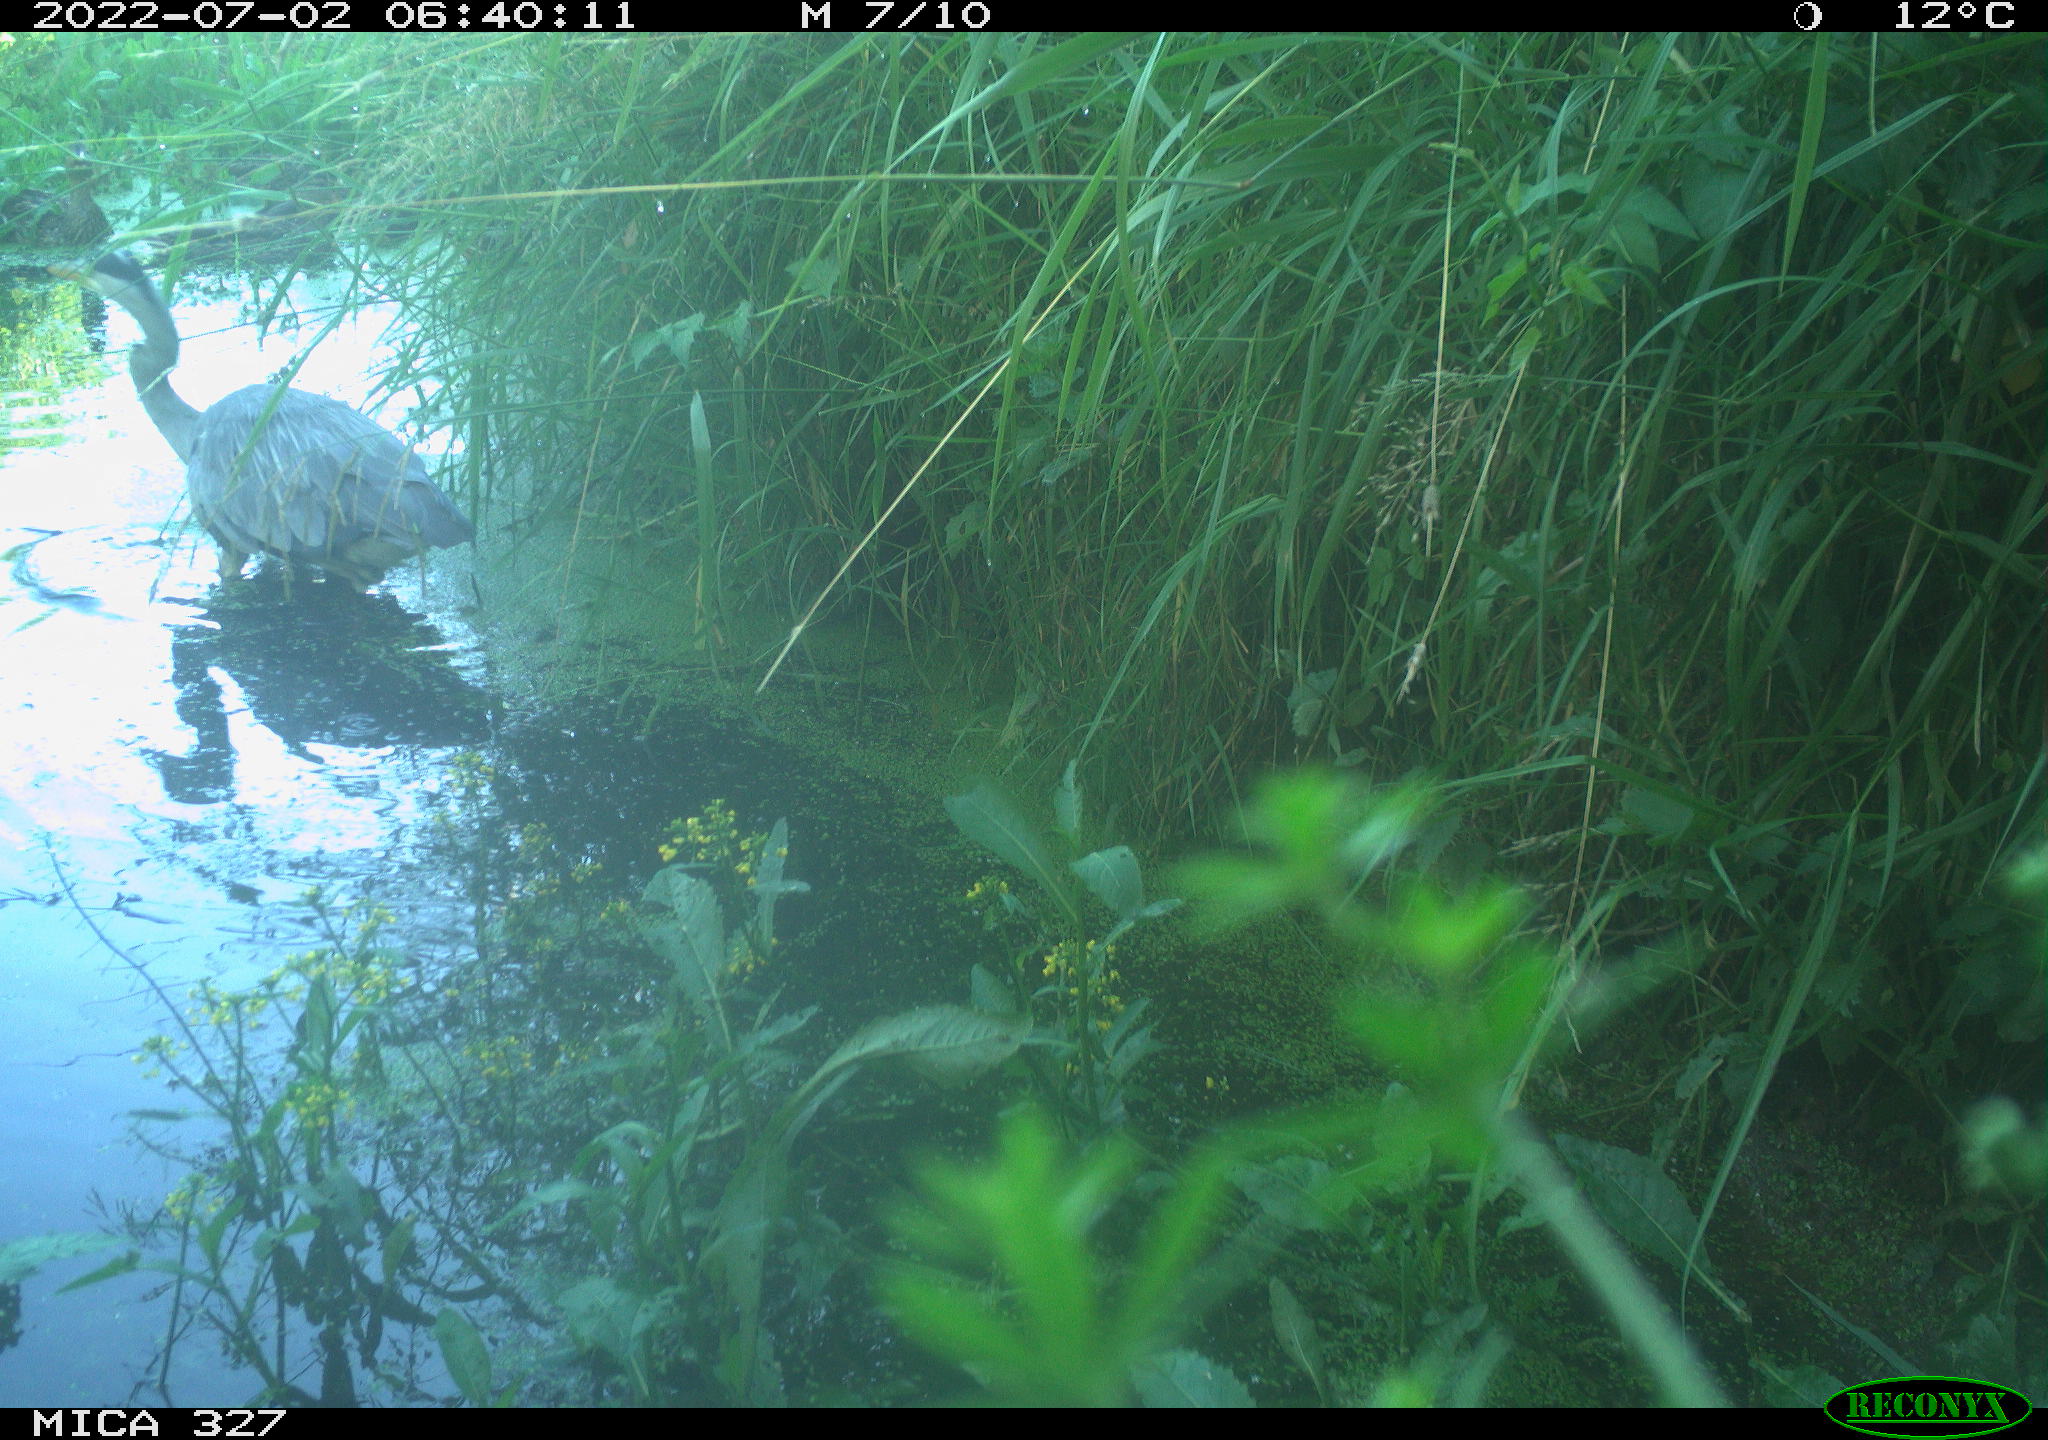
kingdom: Animalia
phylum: Chordata
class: Aves
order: Pelecaniformes
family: Ardeidae
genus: Ardea
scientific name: Ardea cinerea
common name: Grey heron
